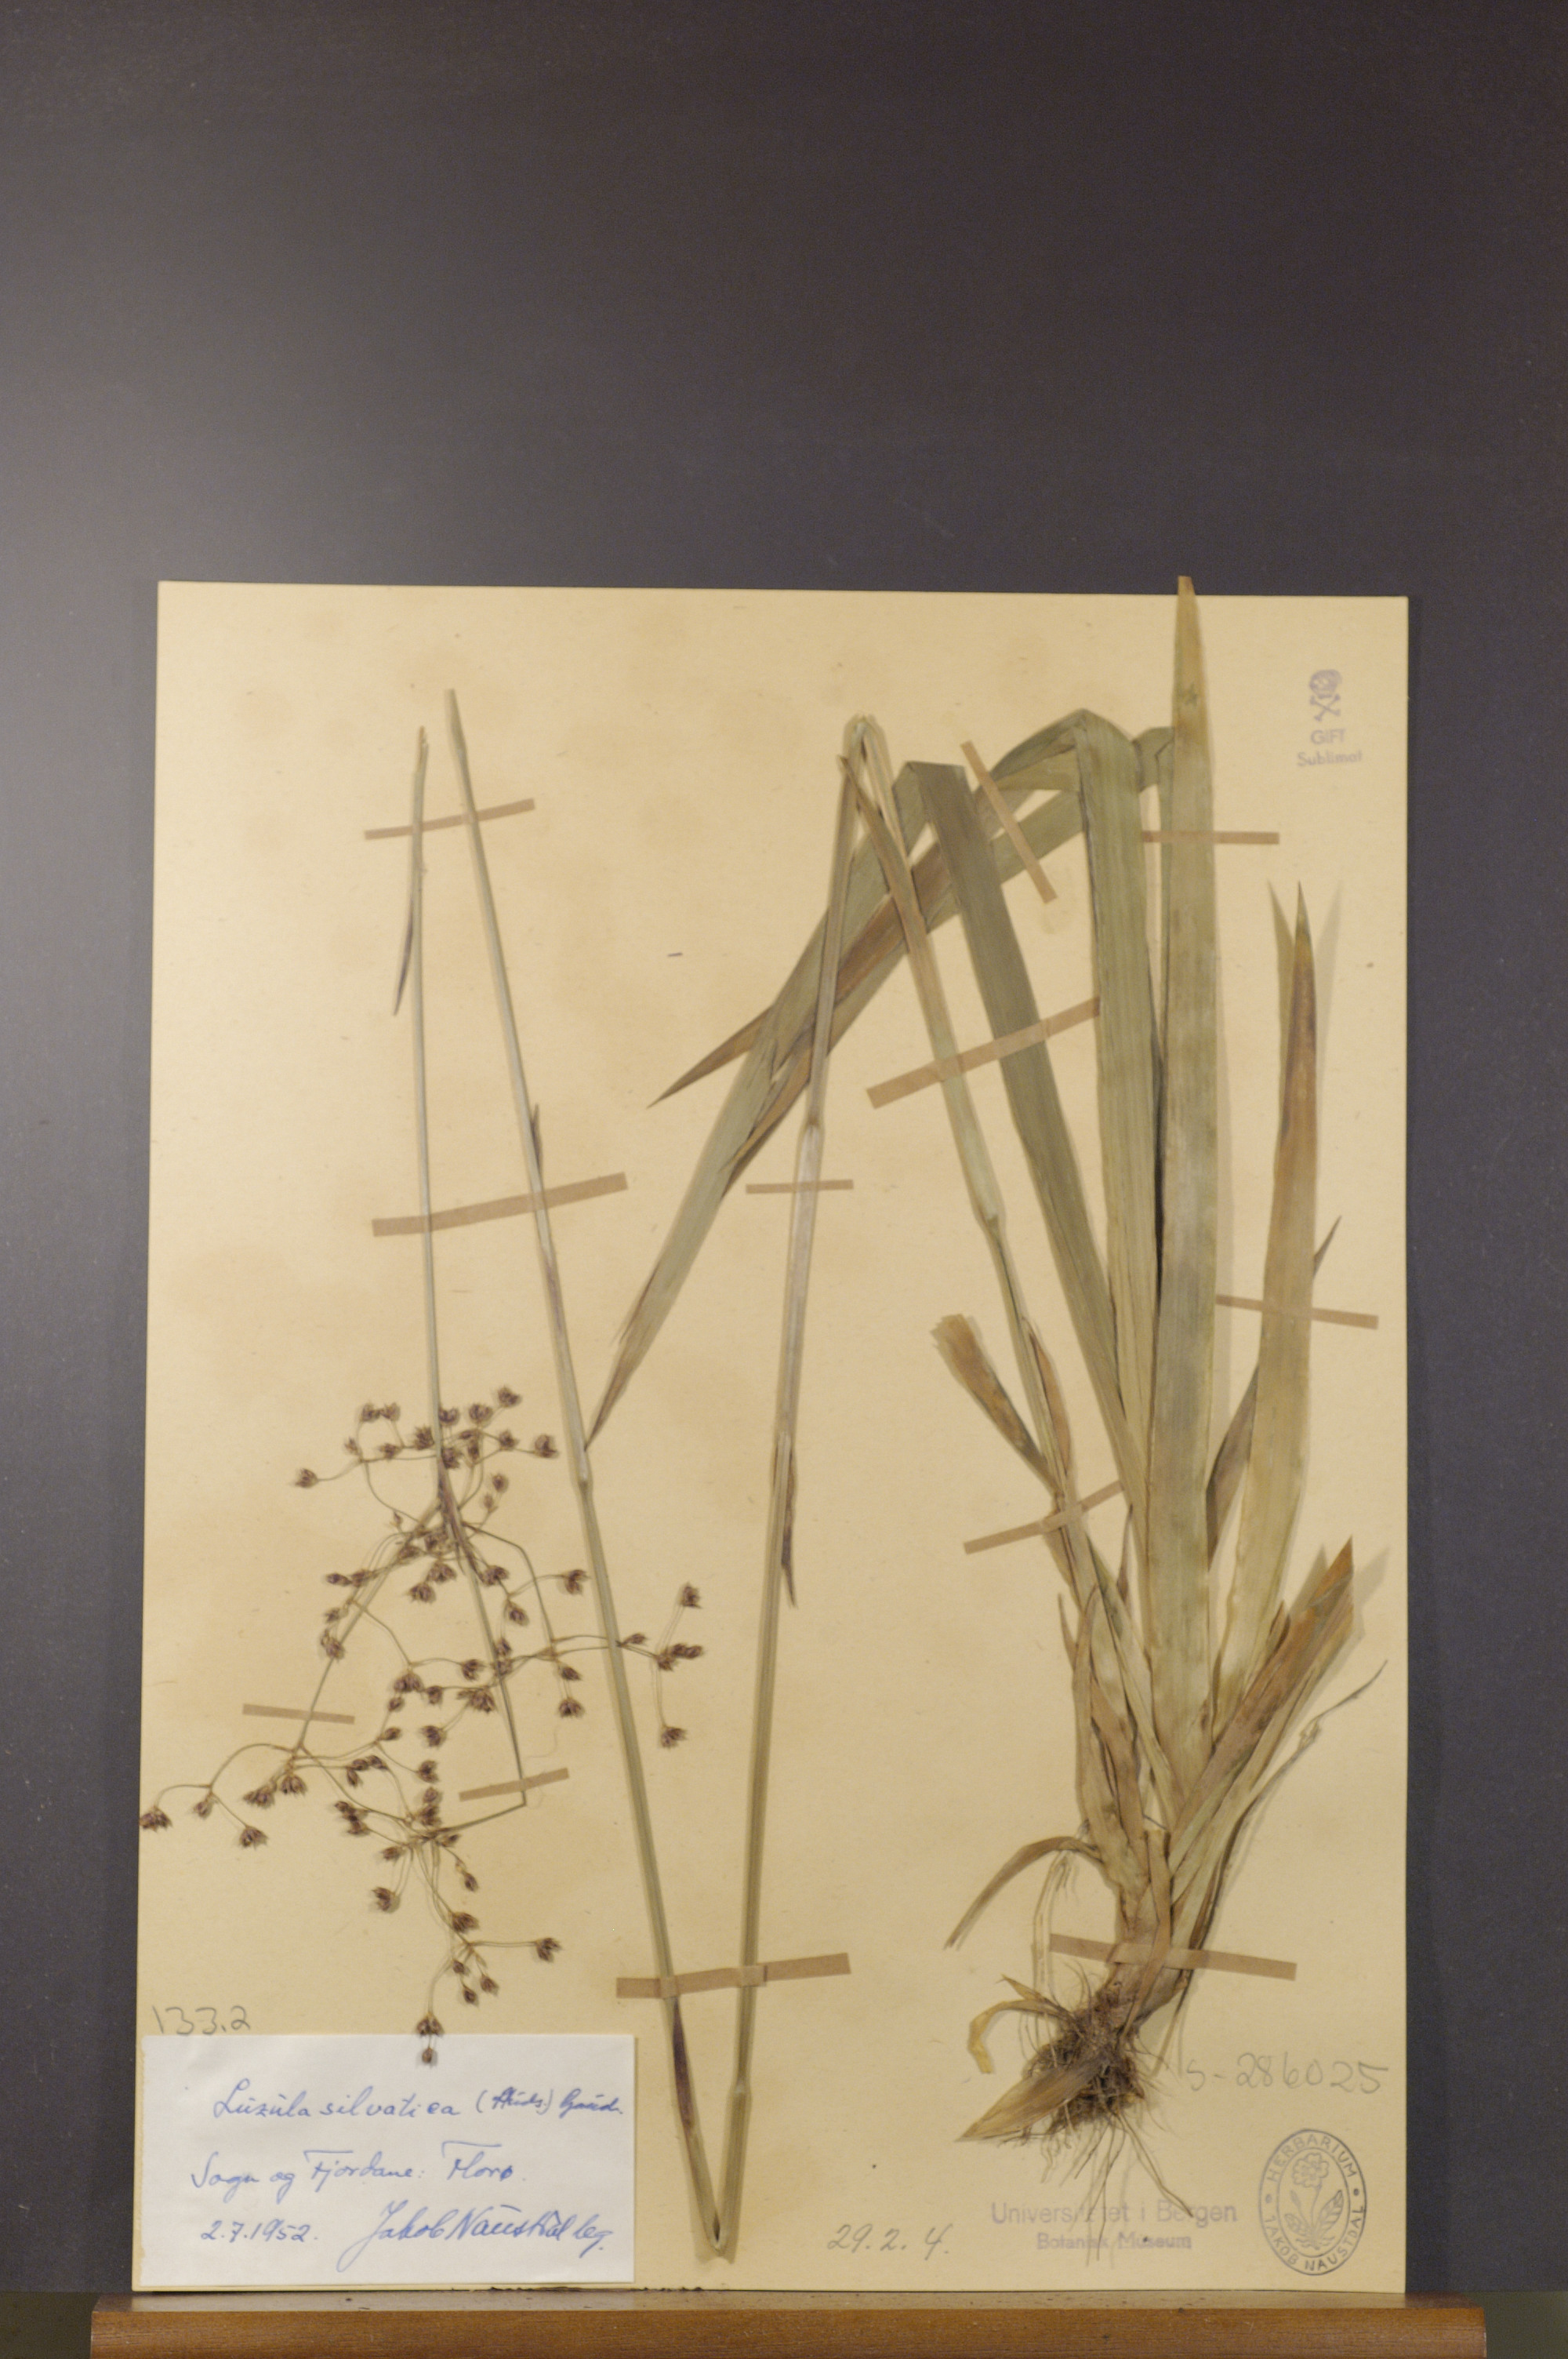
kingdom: Plantae
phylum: Tracheophyta
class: Liliopsida
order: Poales
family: Juncaceae
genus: Luzula
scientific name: Luzula sylvatica
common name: Great wood-rush
